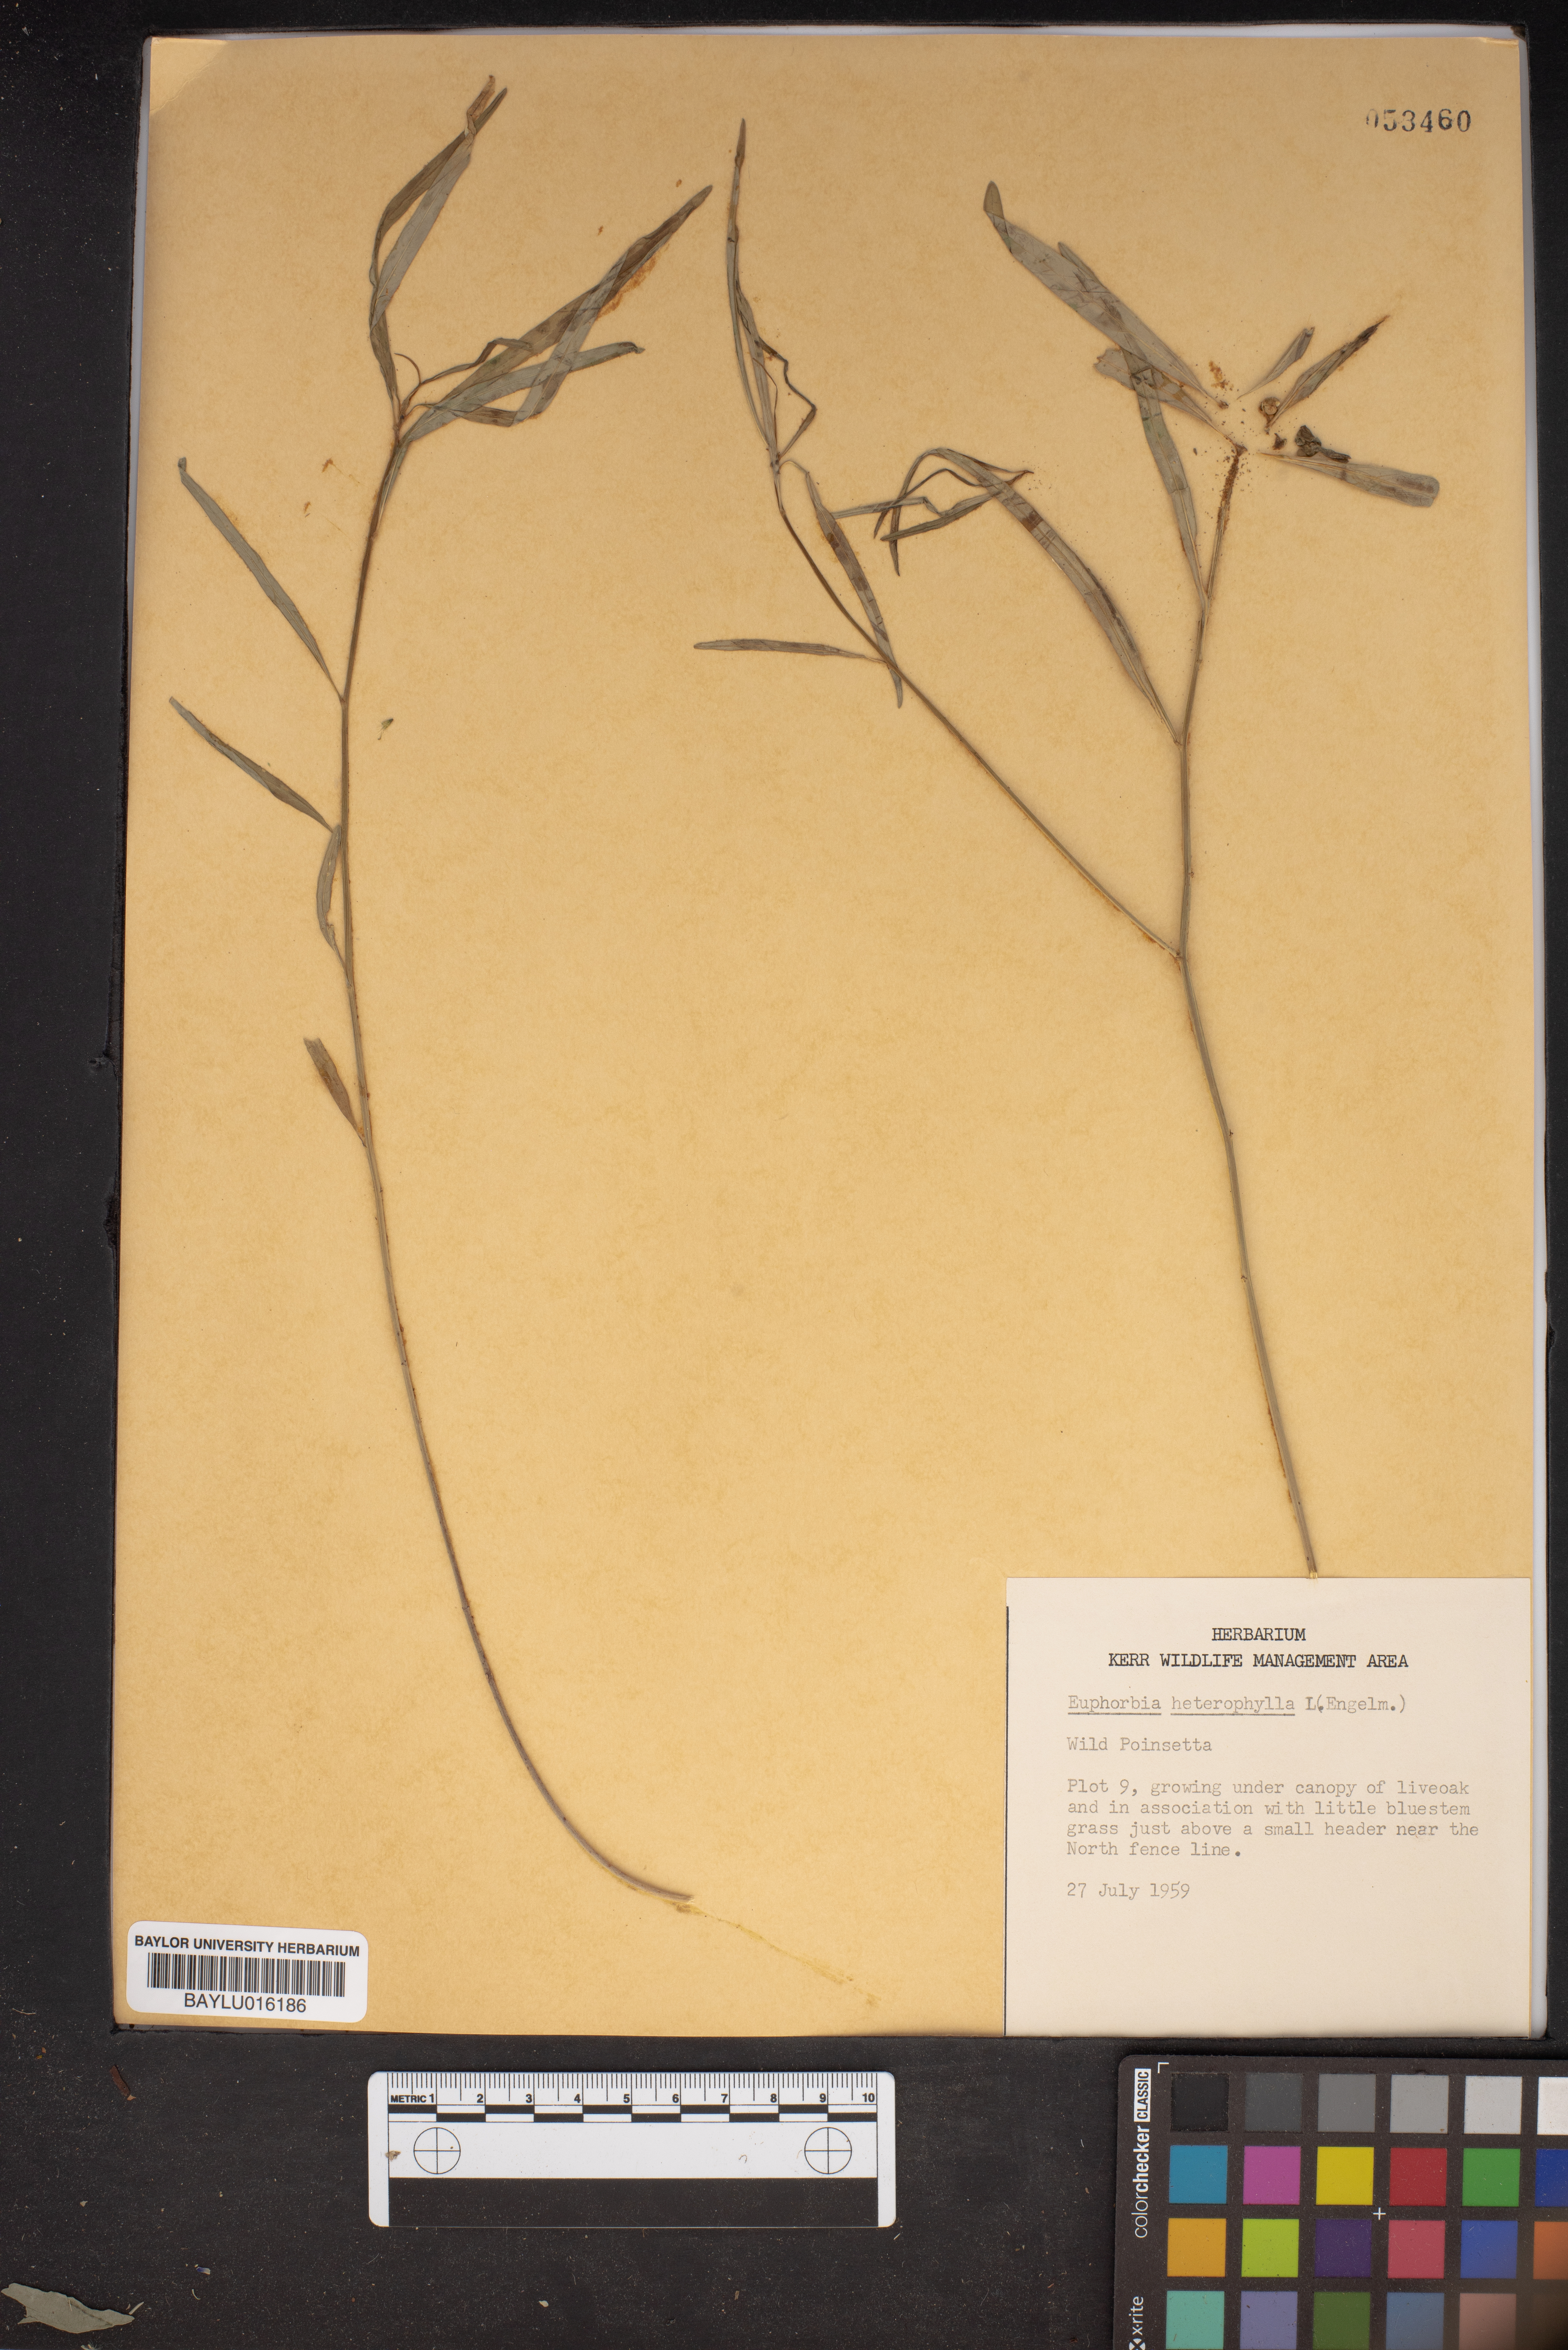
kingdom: Plantae
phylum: Tracheophyta
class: Magnoliopsida
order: Malpighiales
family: Euphorbiaceae
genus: Euphorbia
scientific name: Euphorbia heterophylla
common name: Mexican fireplant
